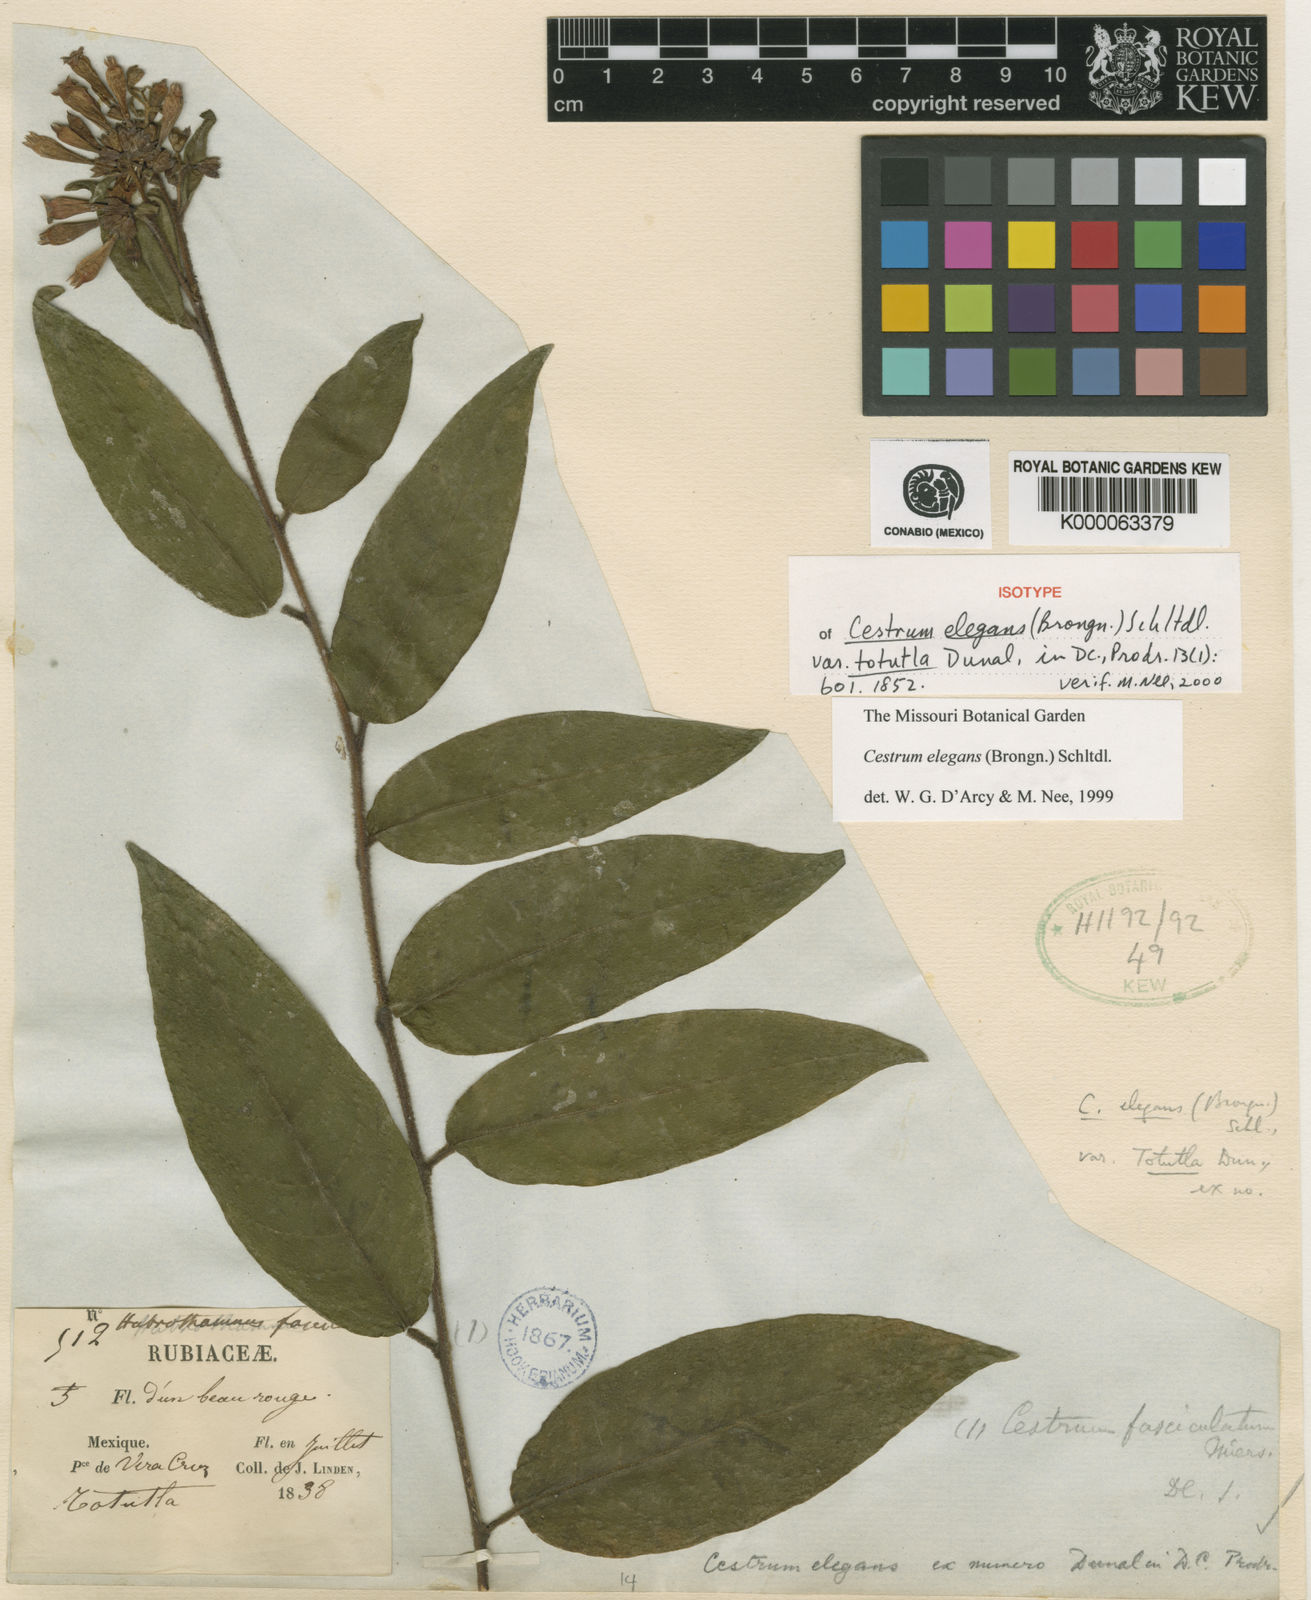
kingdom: Plantae
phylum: Tracheophyta
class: Magnoliopsida
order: Solanales
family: Solanaceae
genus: Cestrum
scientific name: Cestrum elegans
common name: Crimson cestrum
